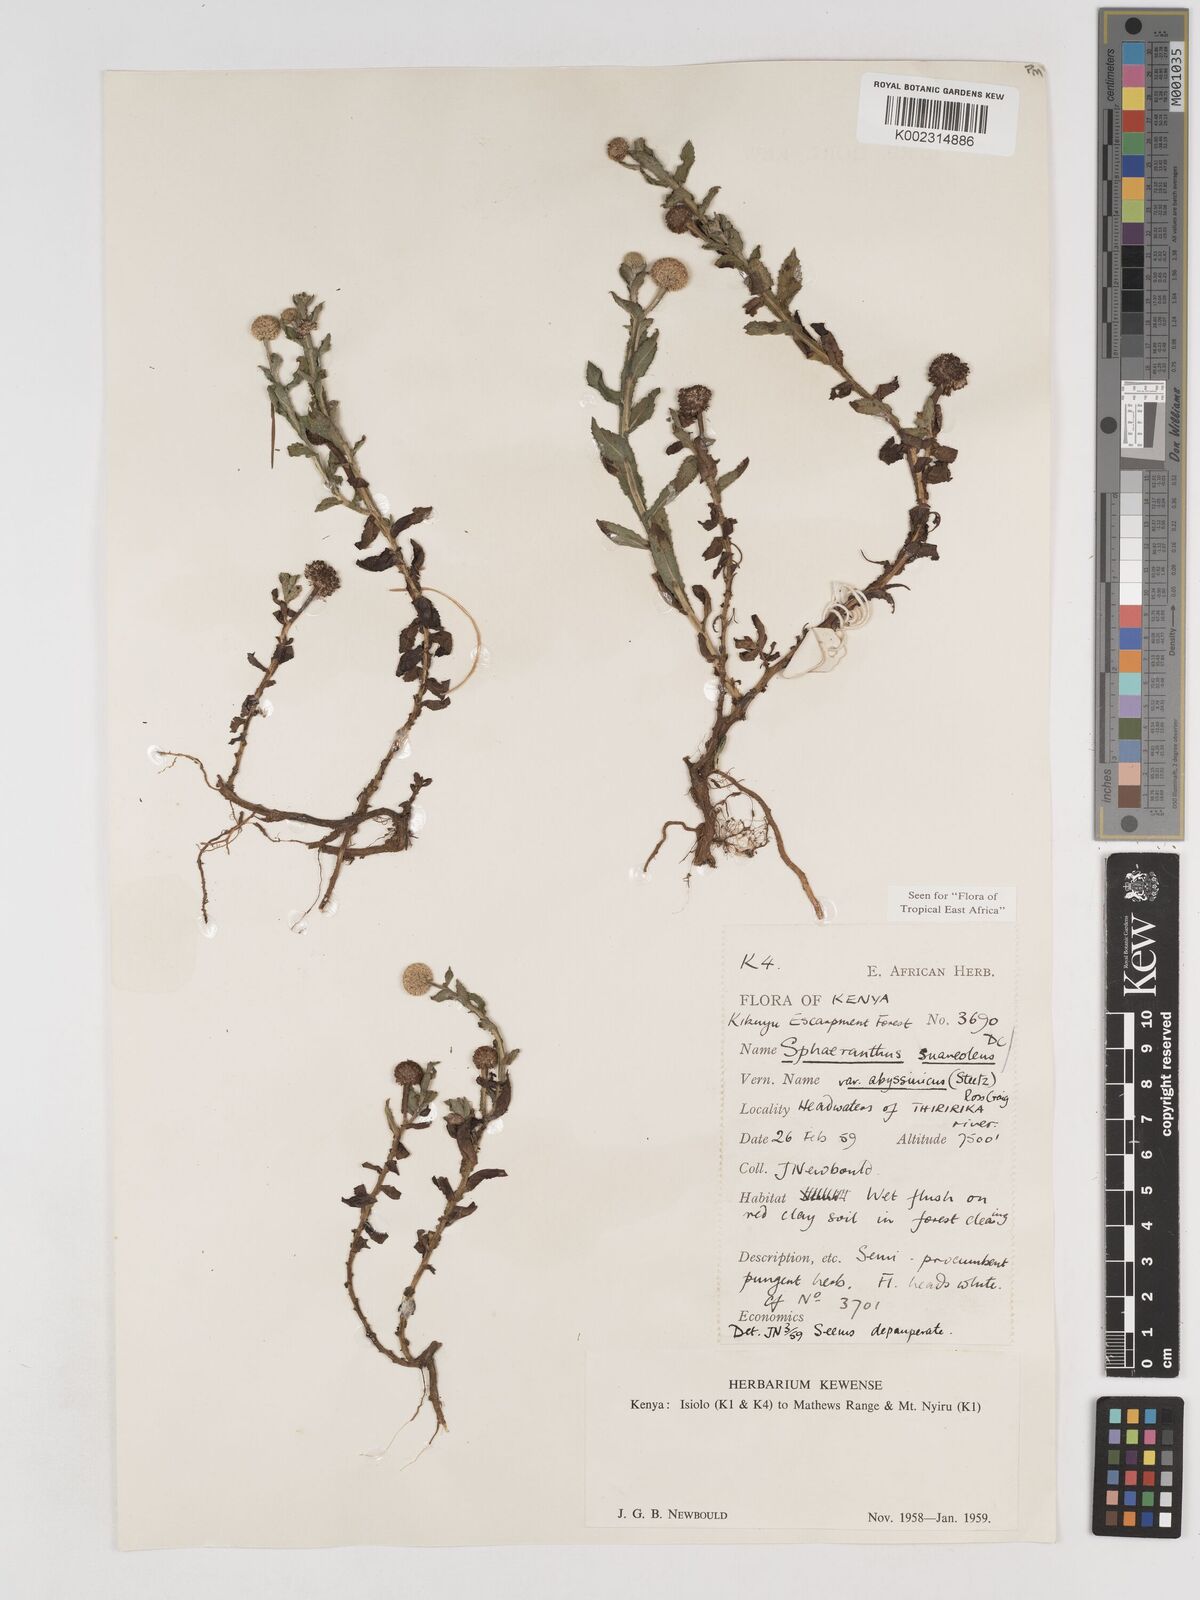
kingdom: Plantae
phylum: Tracheophyta
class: Magnoliopsida
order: Asterales
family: Asteraceae
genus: Sphaeranthus
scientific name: Sphaeranthus suaveolens
